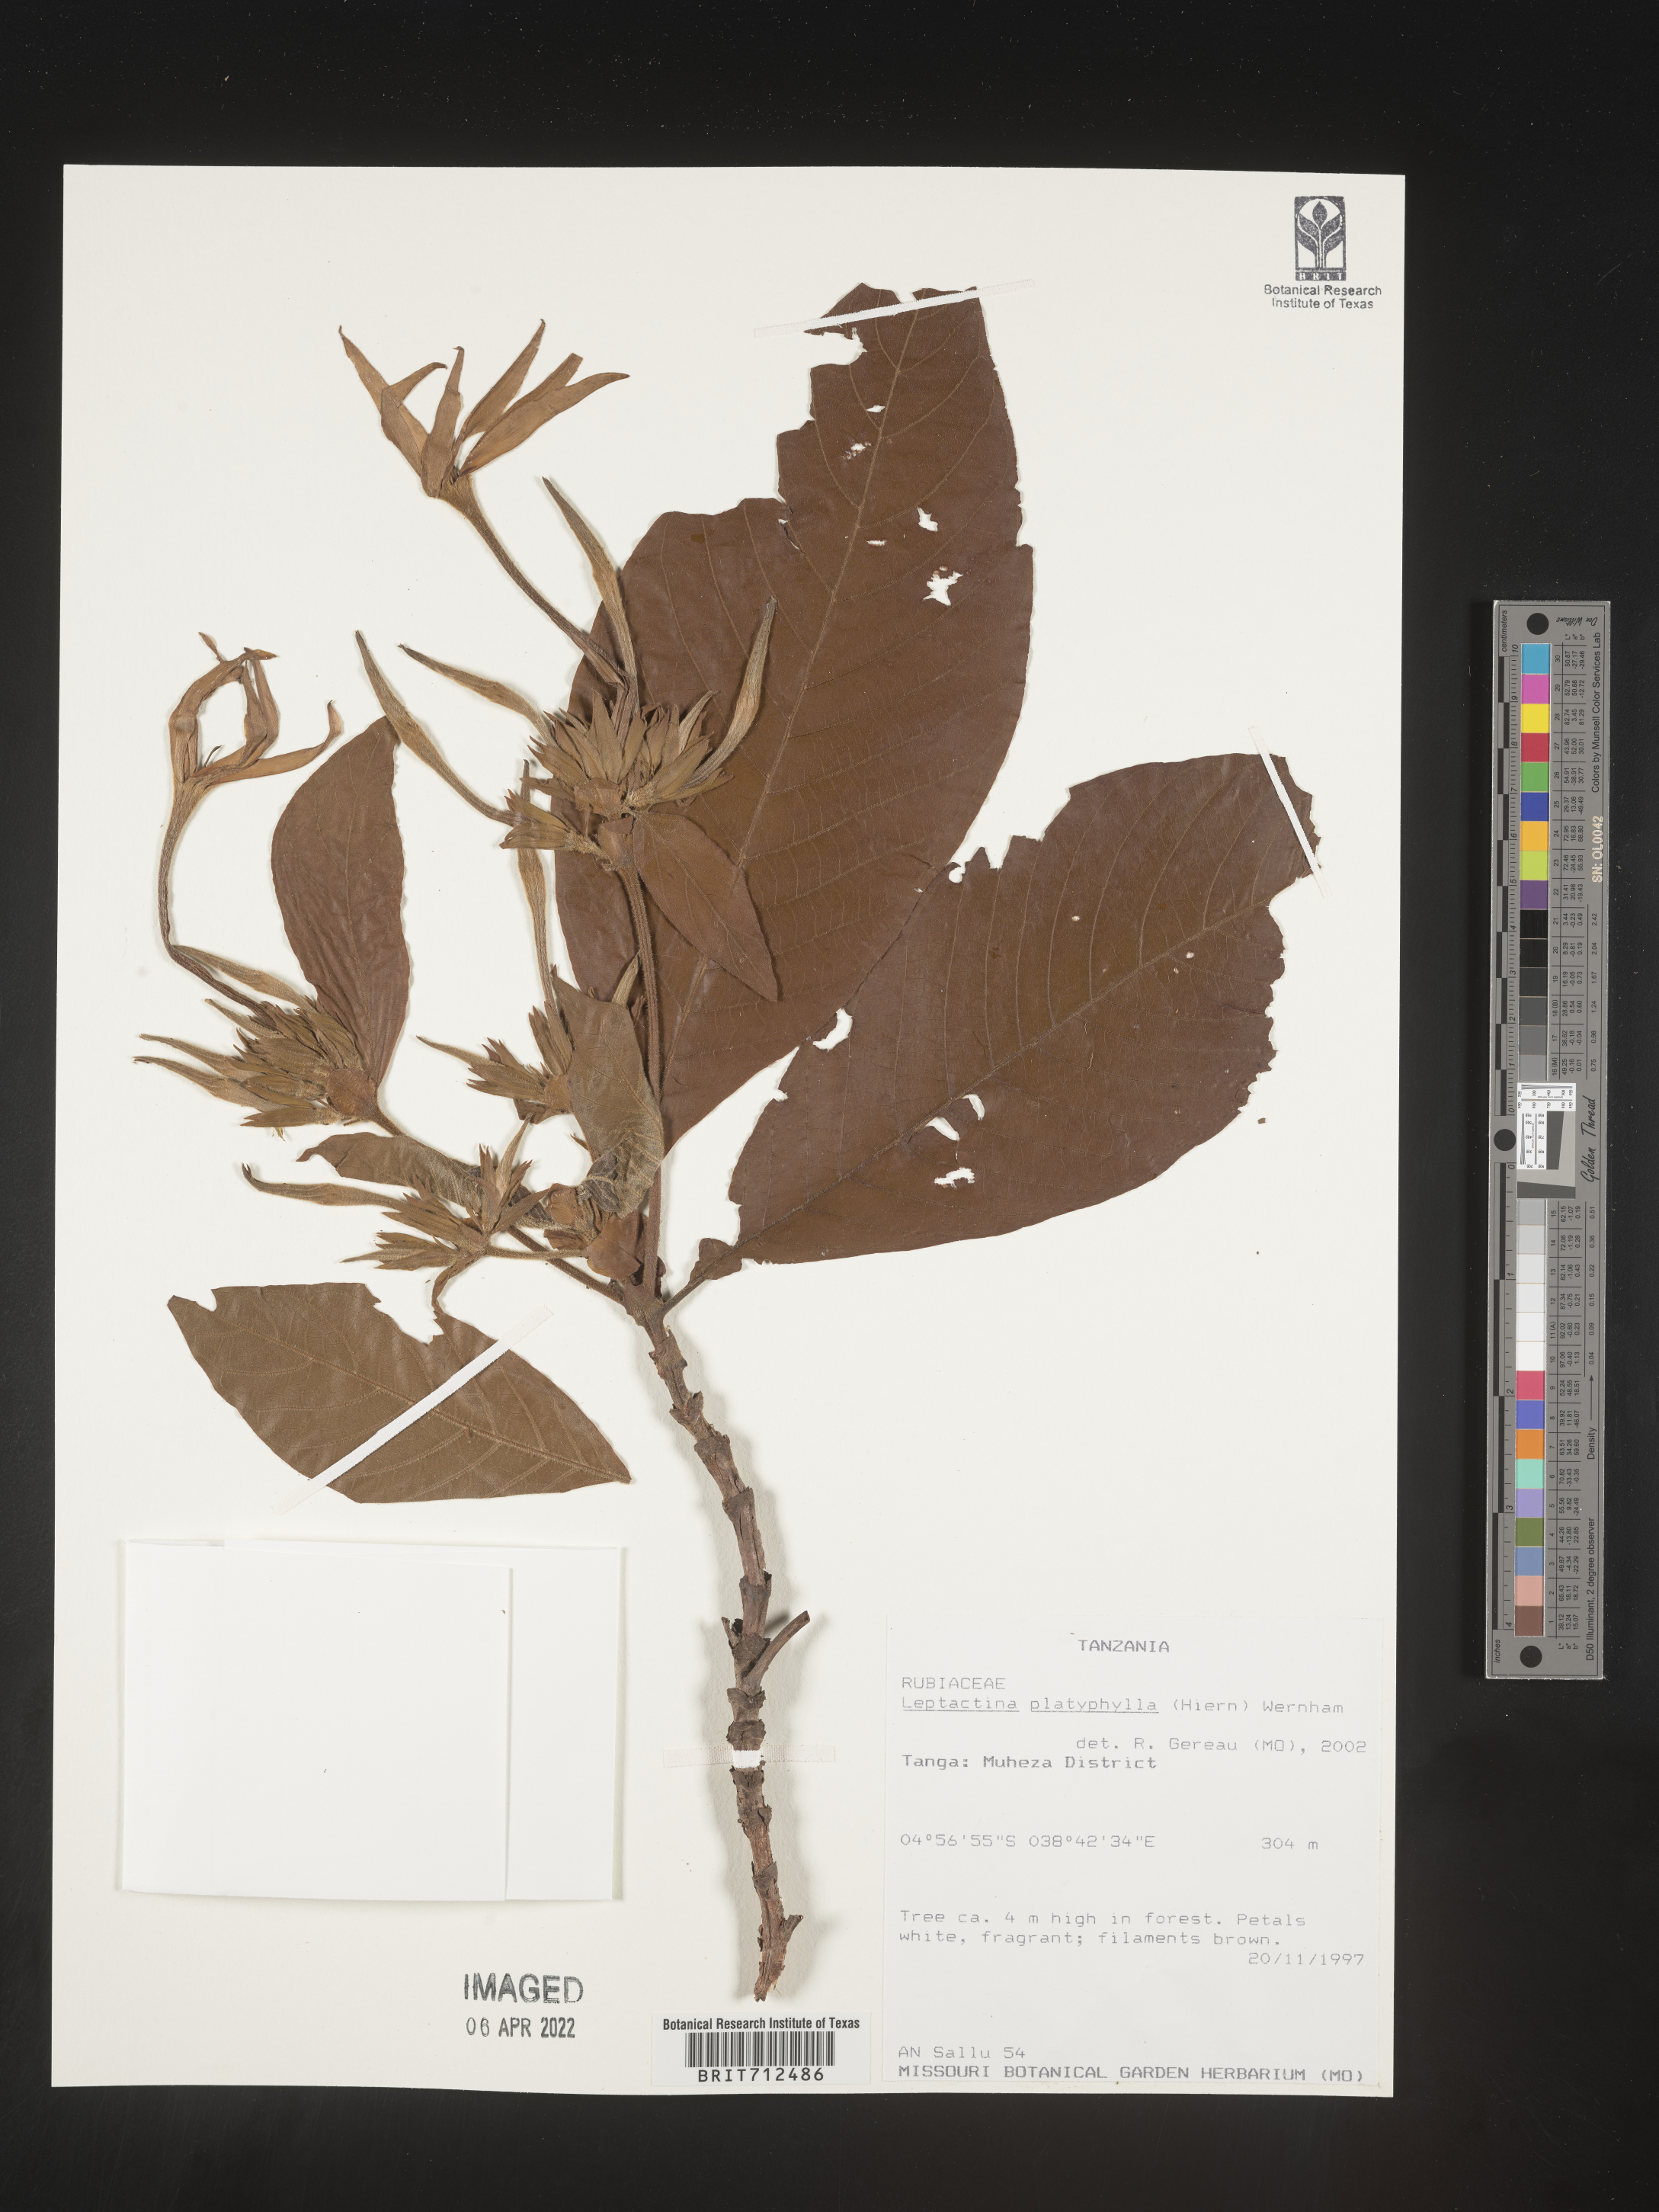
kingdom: Plantae
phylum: Tracheophyta
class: Magnoliopsida
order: Gentianales
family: Rubiaceae
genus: Leptactinia
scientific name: Leptactinia
